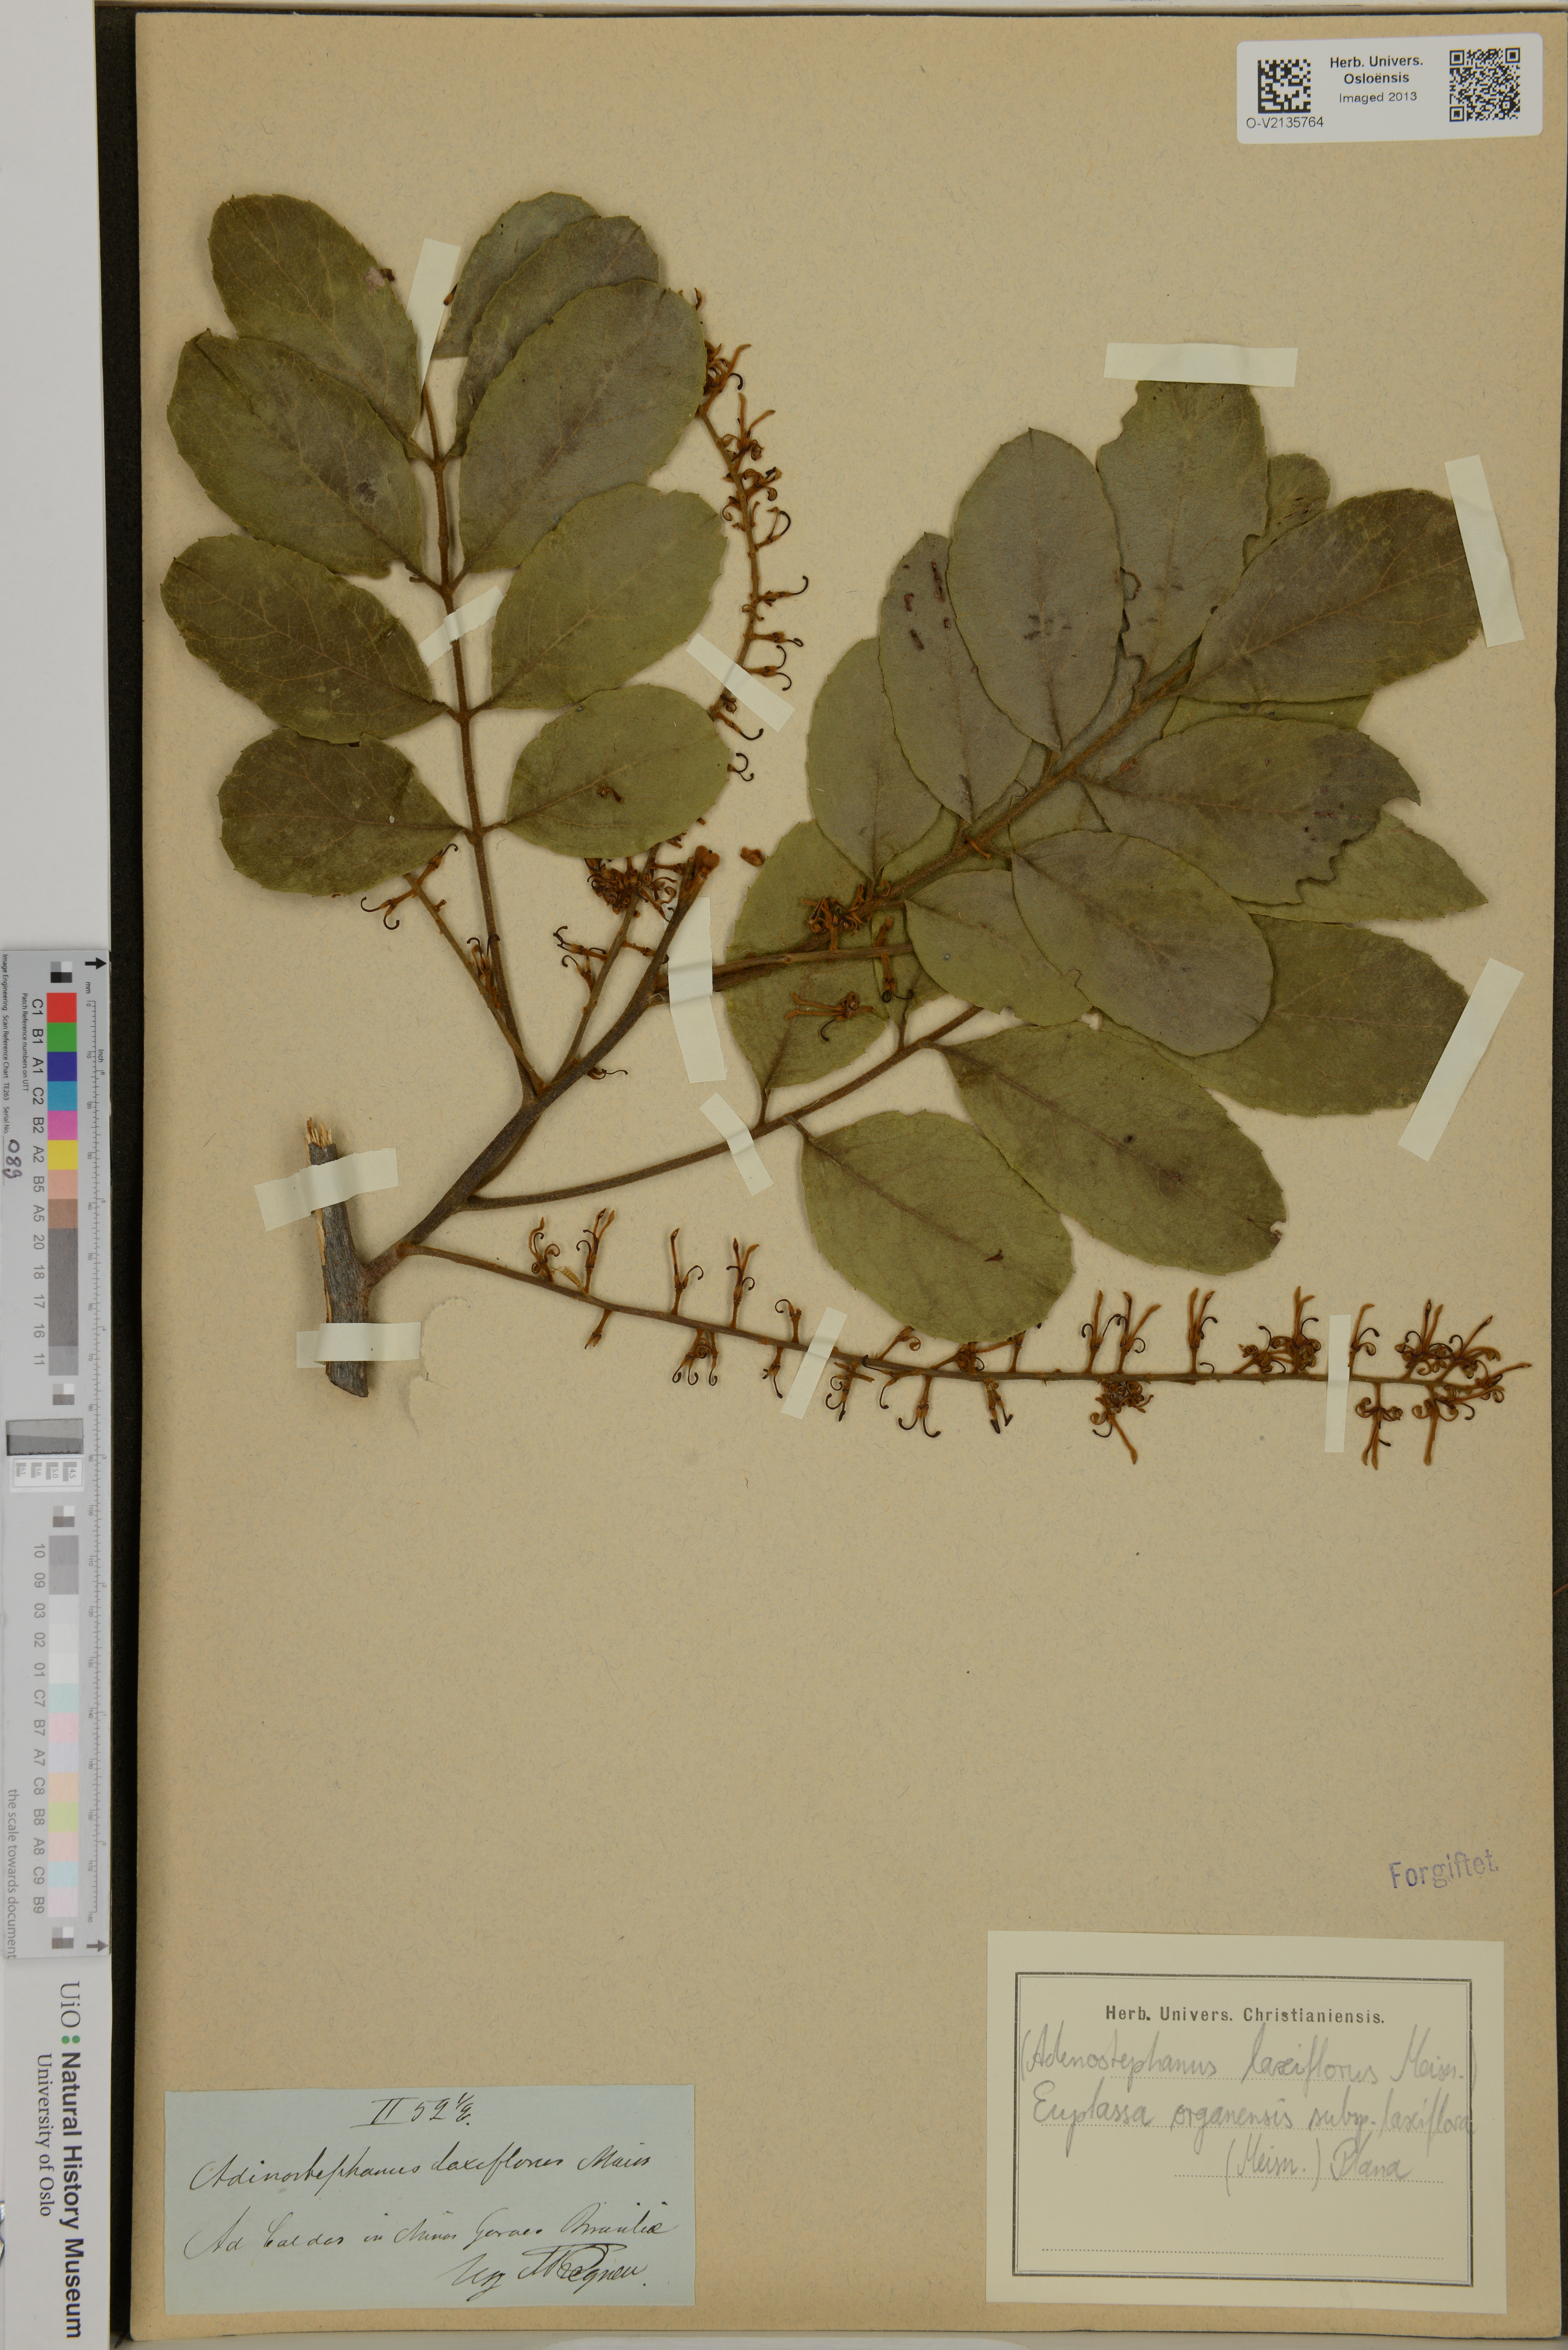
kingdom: Plantae
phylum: Tracheophyta
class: Magnoliopsida
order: Proteales
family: Proteaceae
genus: Euplassa
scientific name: Euplassa organensis
